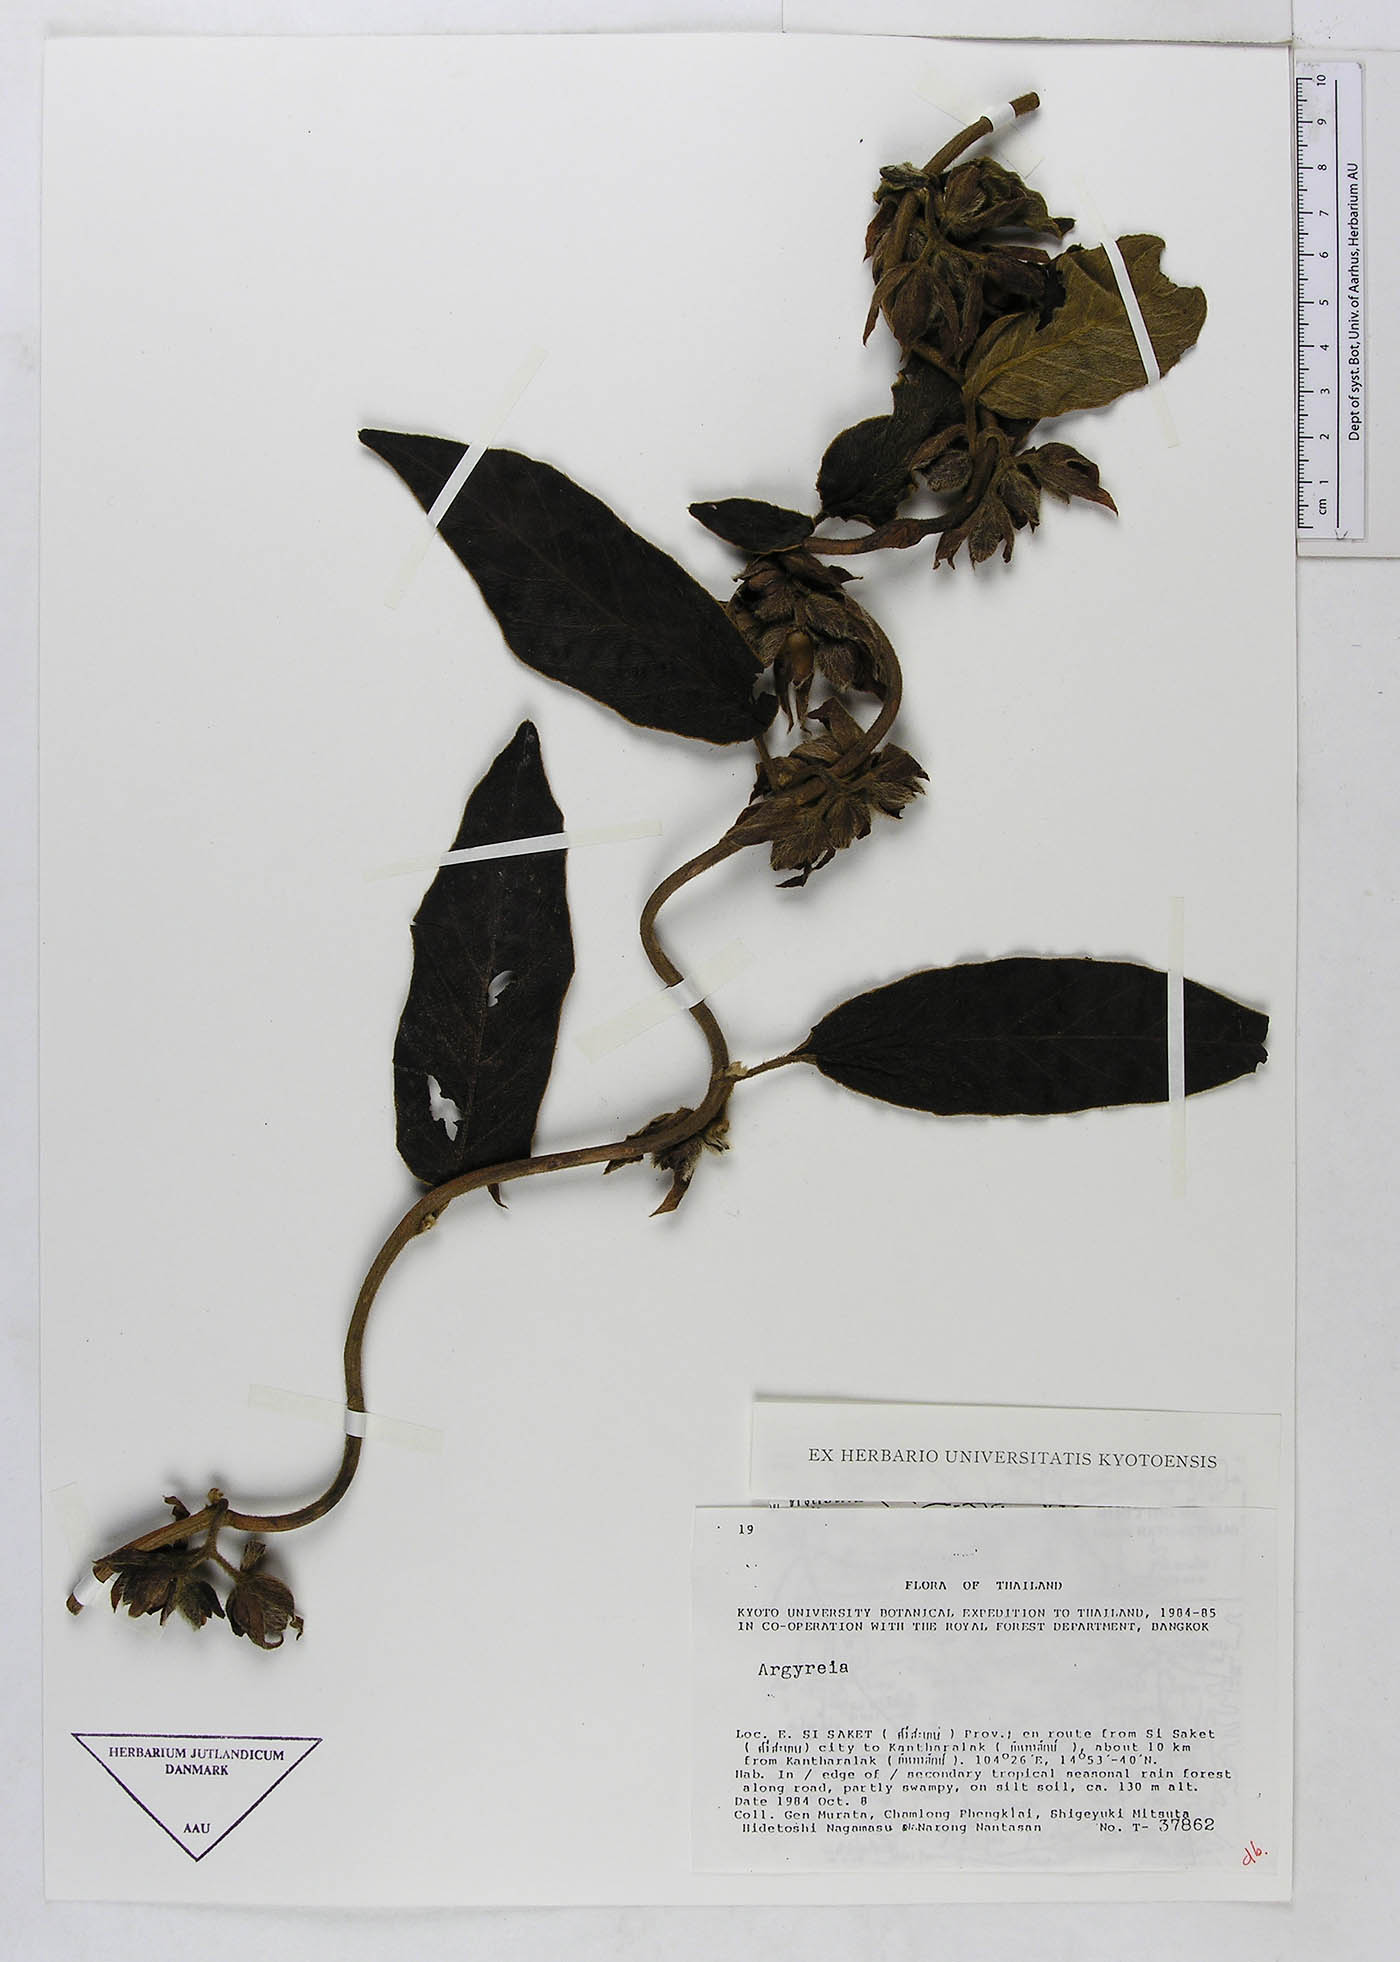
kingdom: Plantae
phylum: Tracheophyta
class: Magnoliopsida
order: Solanales
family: Convolvulaceae
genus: Argyreia
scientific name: Argyreia mekongensis
